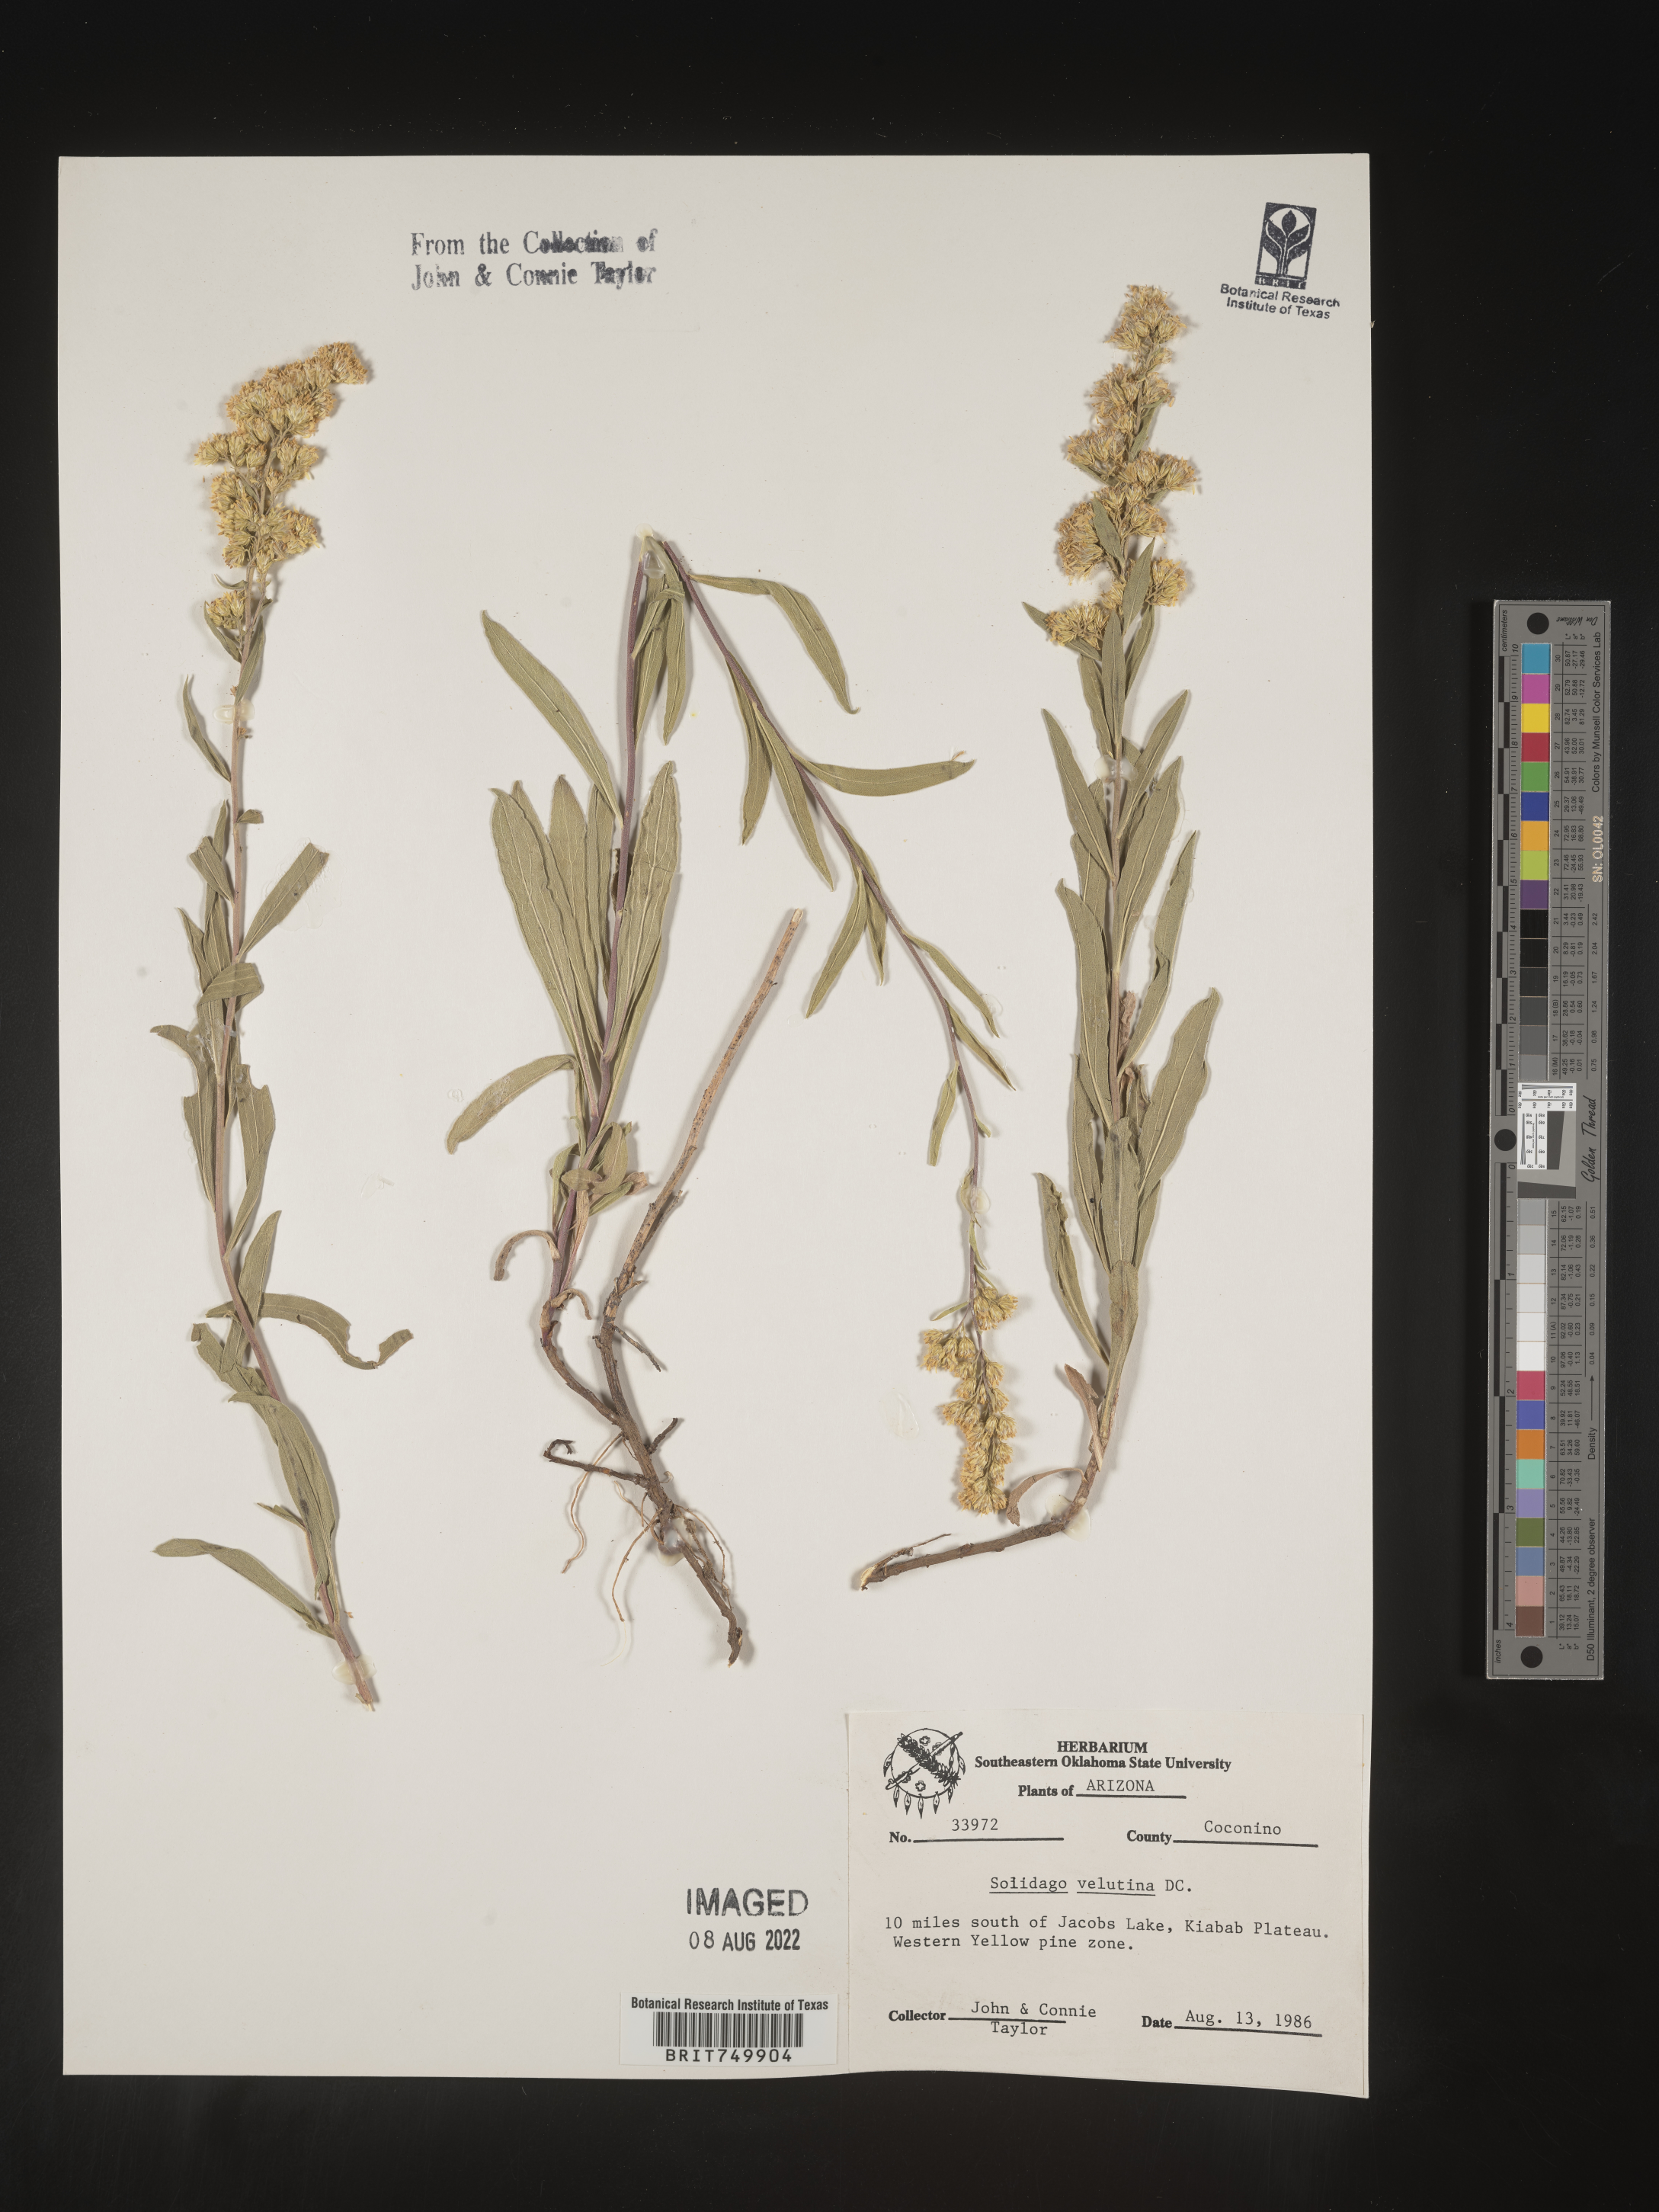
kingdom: Plantae
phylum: Tracheophyta
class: Magnoliopsida
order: Asterales
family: Asteraceae
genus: Solidago
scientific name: Solidago velutina
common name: Three-nerve goldenrod
